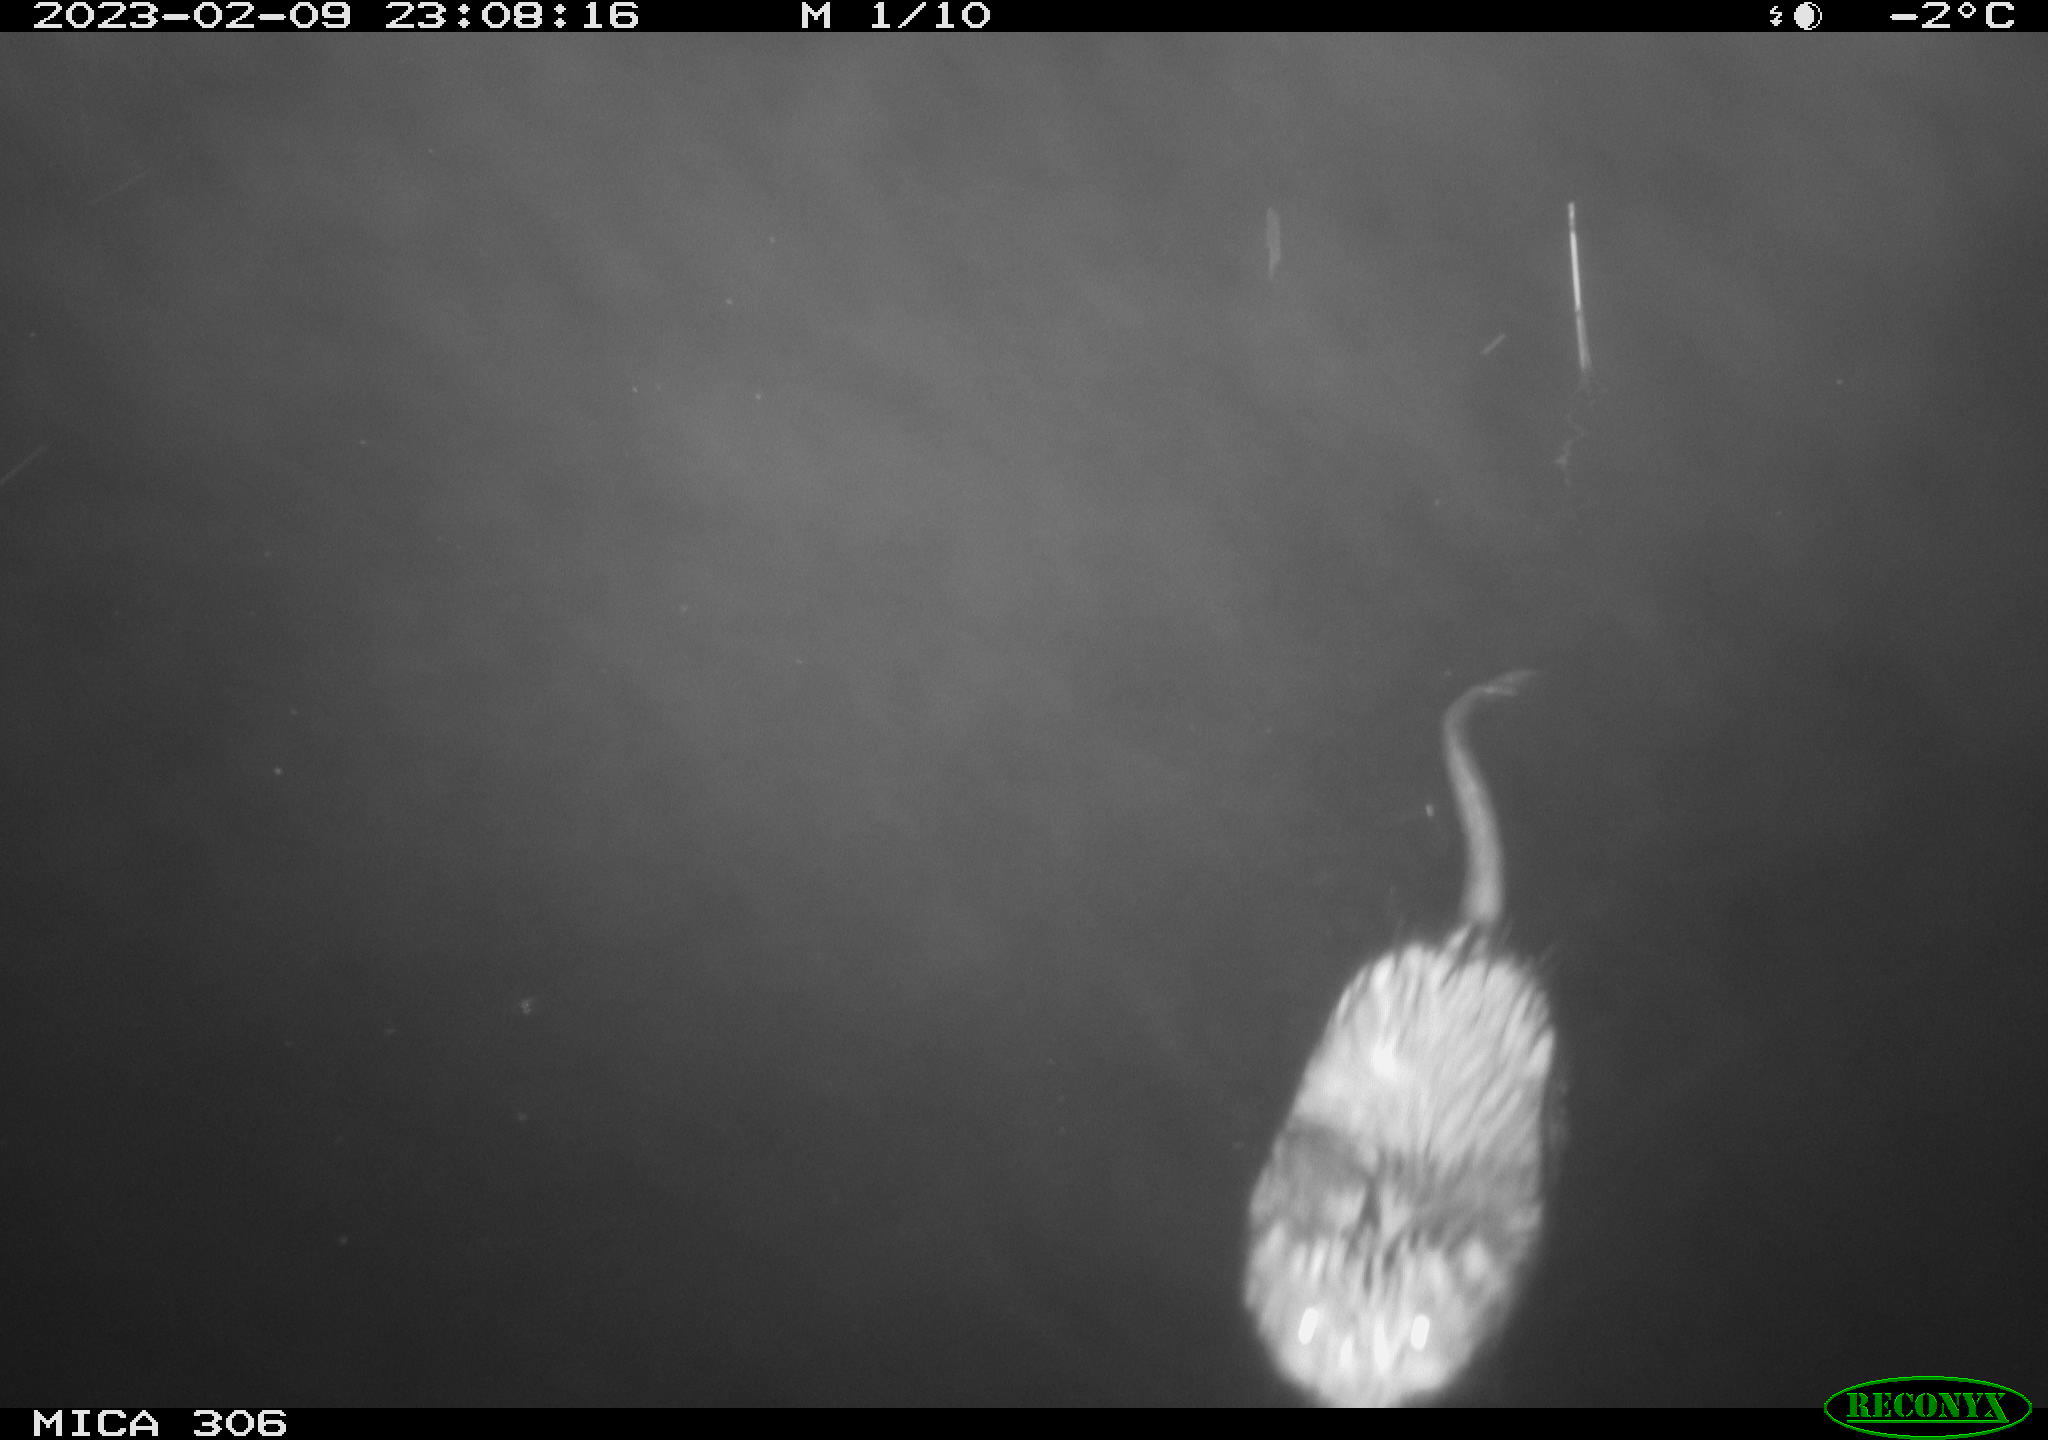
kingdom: Animalia
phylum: Chordata
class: Mammalia
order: Rodentia
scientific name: Rodentia
